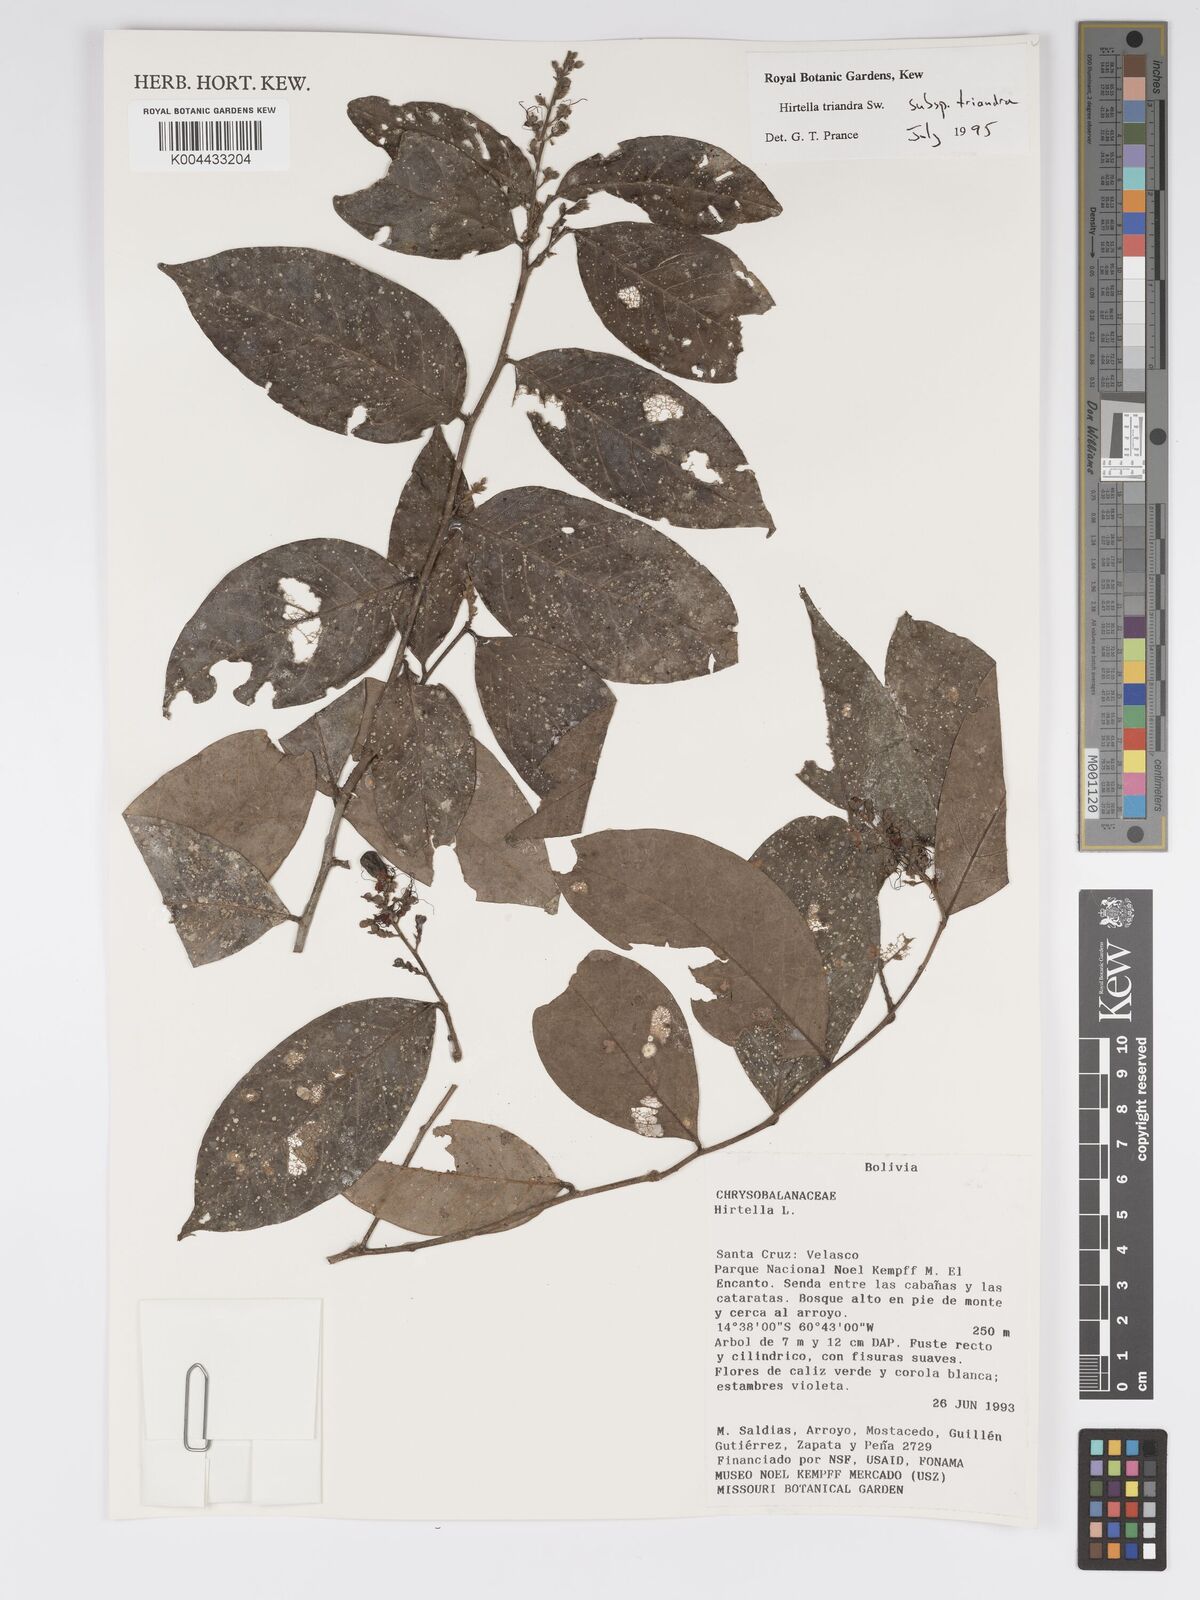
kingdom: Plantae
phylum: Tracheophyta
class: Magnoliopsida
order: Malpighiales
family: Chrysobalanaceae
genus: Hirtella
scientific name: Hirtella triandra
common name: Hairy plum
